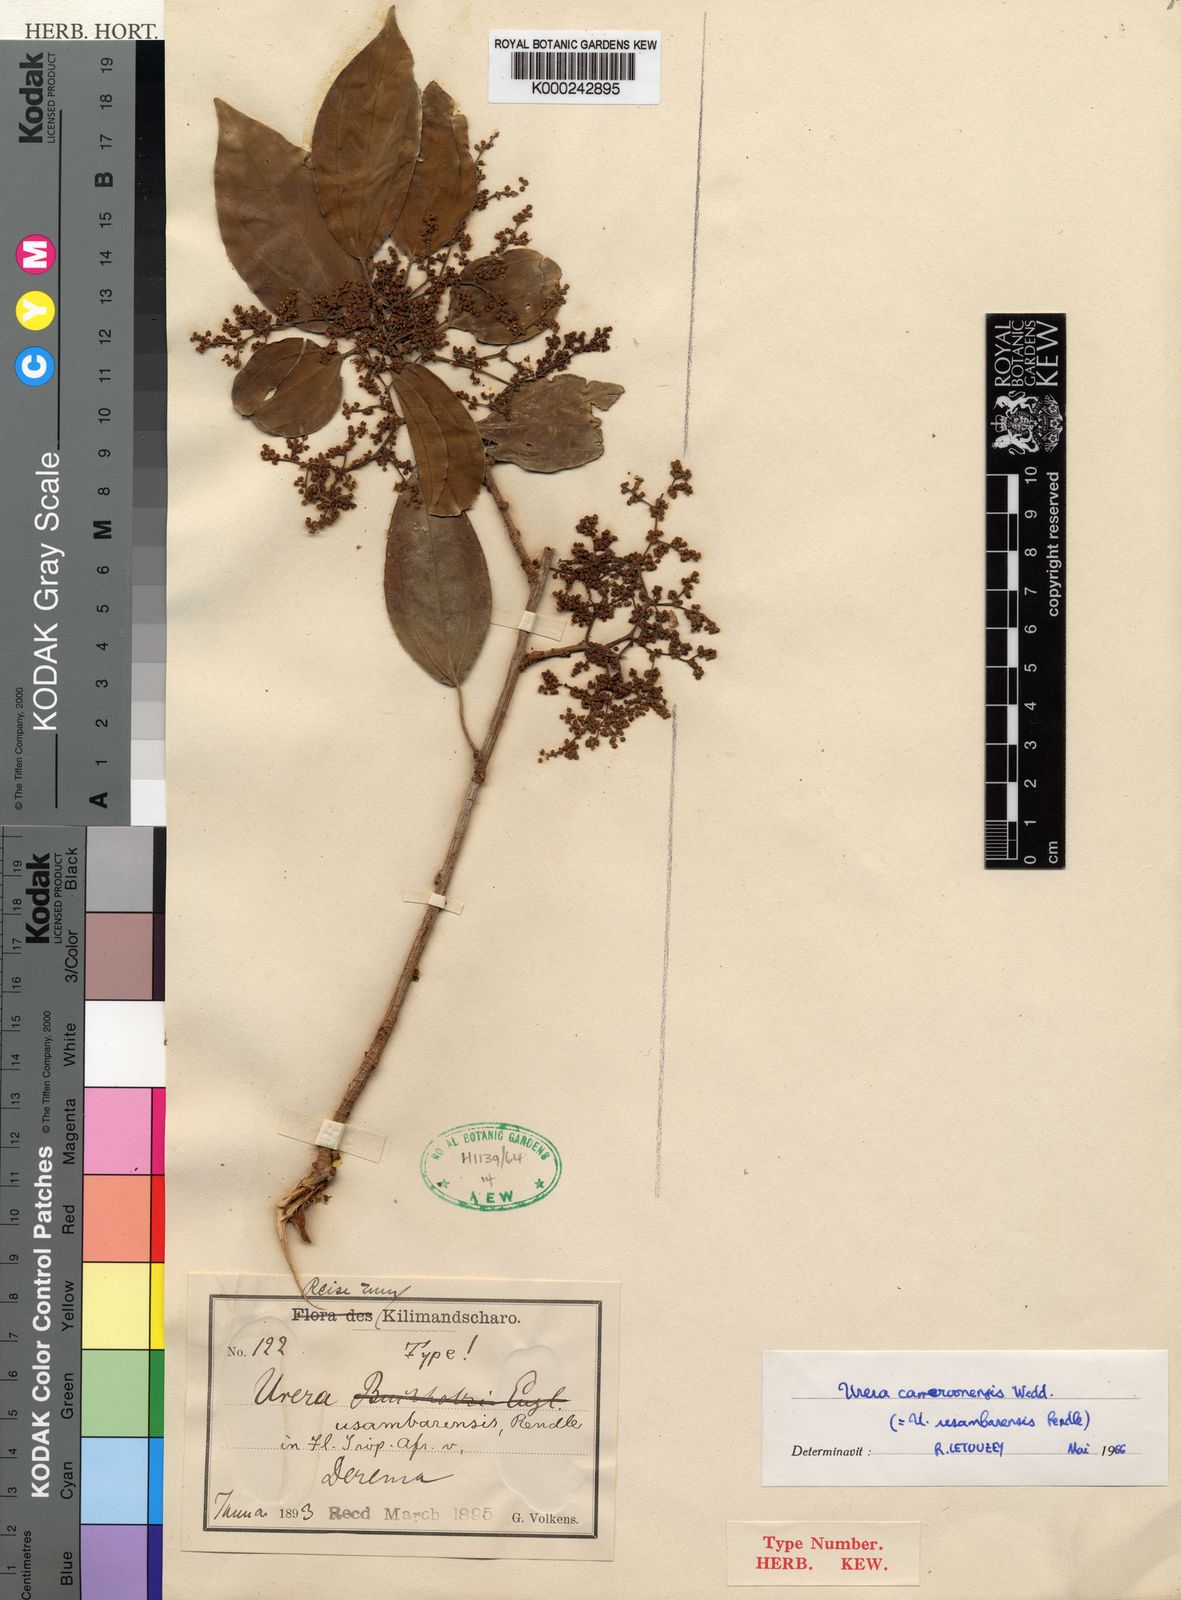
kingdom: Plantae
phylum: Tracheophyta
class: Magnoliopsida
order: Rosales
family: Urticaceae
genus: Scepocarpus
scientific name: Scepocarpus
